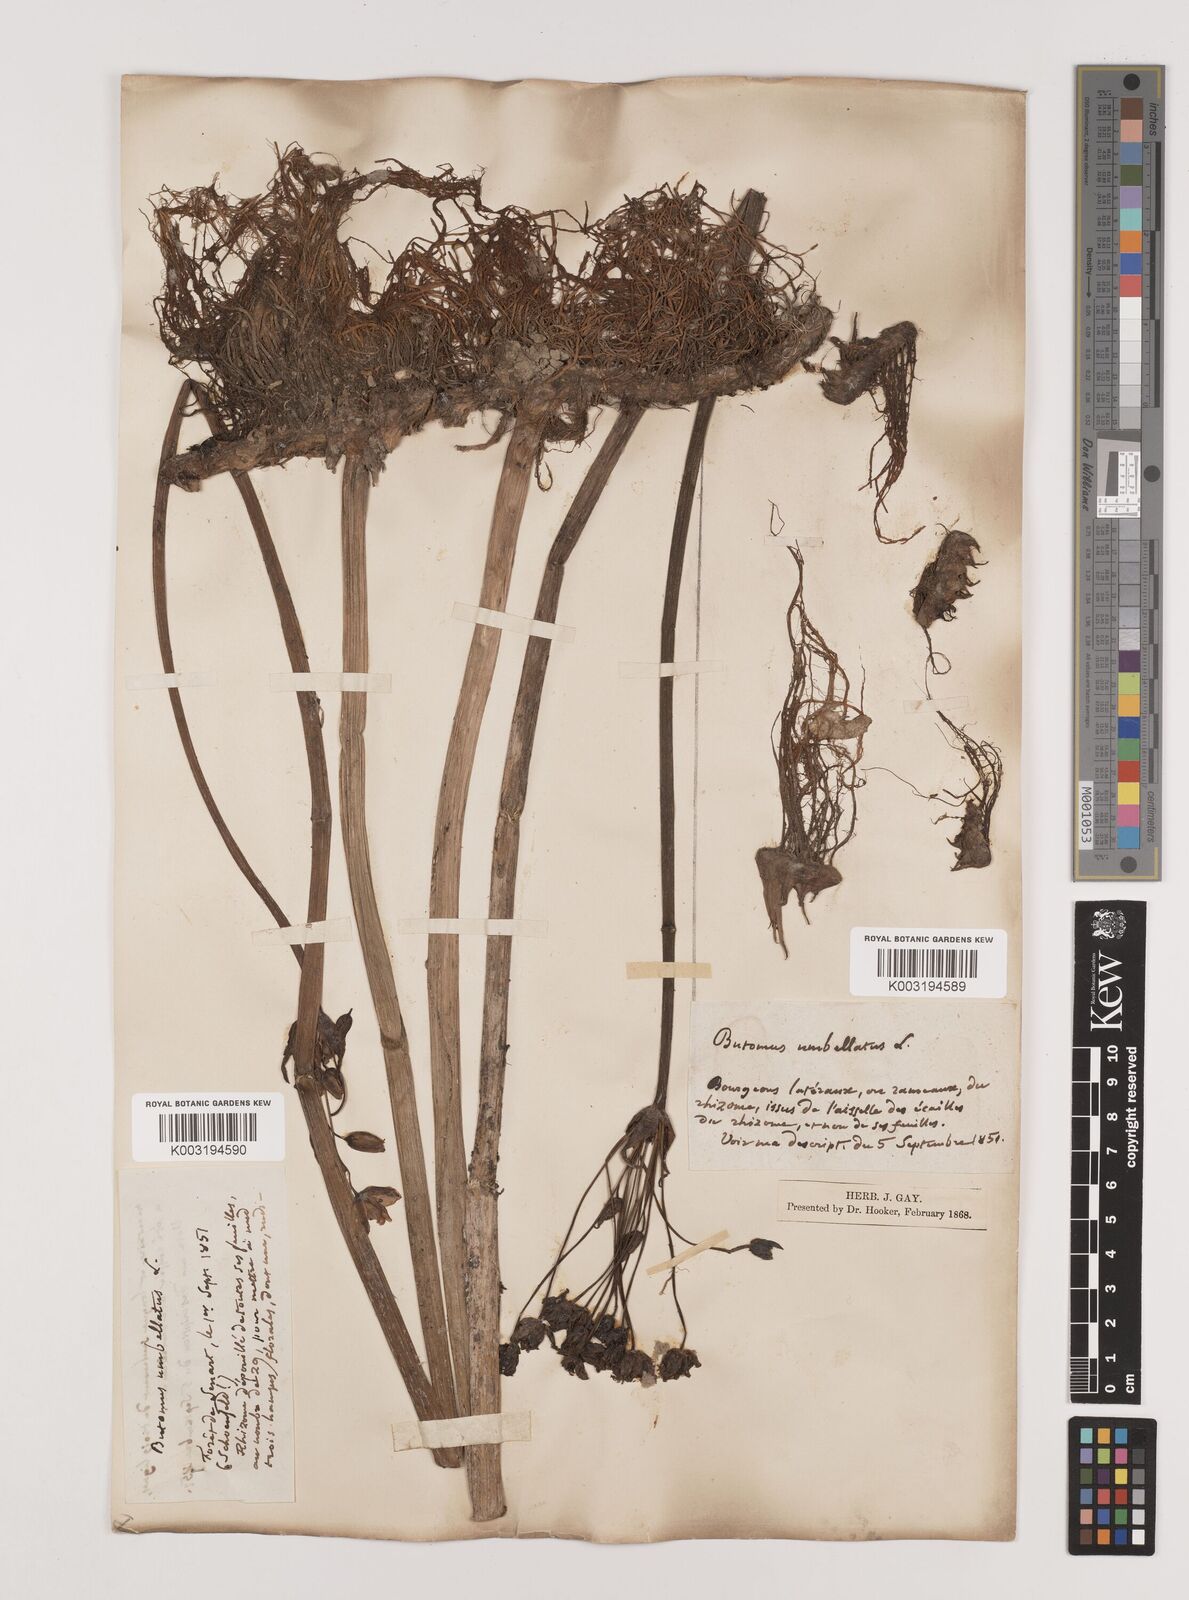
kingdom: Plantae
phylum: Tracheophyta
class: Liliopsida
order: Alismatales
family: Butomaceae
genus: Butomus
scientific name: Butomus umbellatus
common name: Flowering-rush
